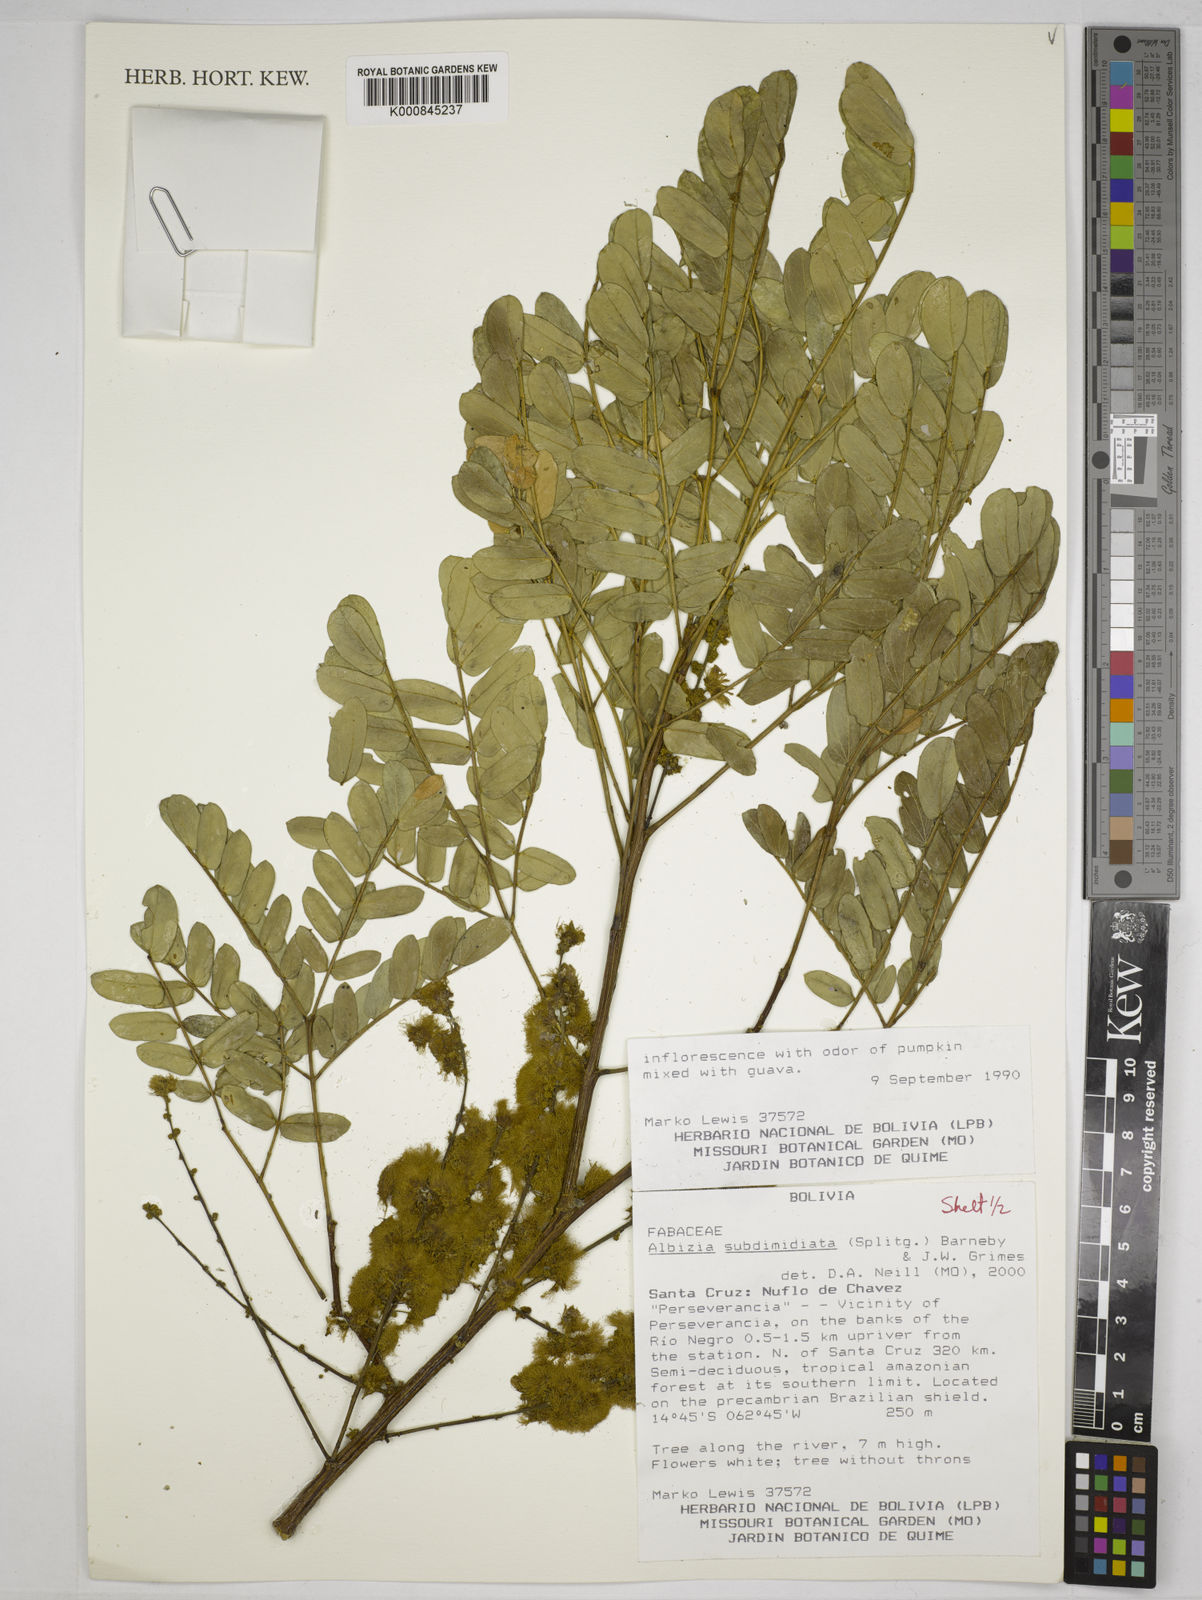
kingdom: Plantae
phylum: Tracheophyta
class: Magnoliopsida
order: Fabales
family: Fabaceae
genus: Albizia
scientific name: Albizia subdimidiata
